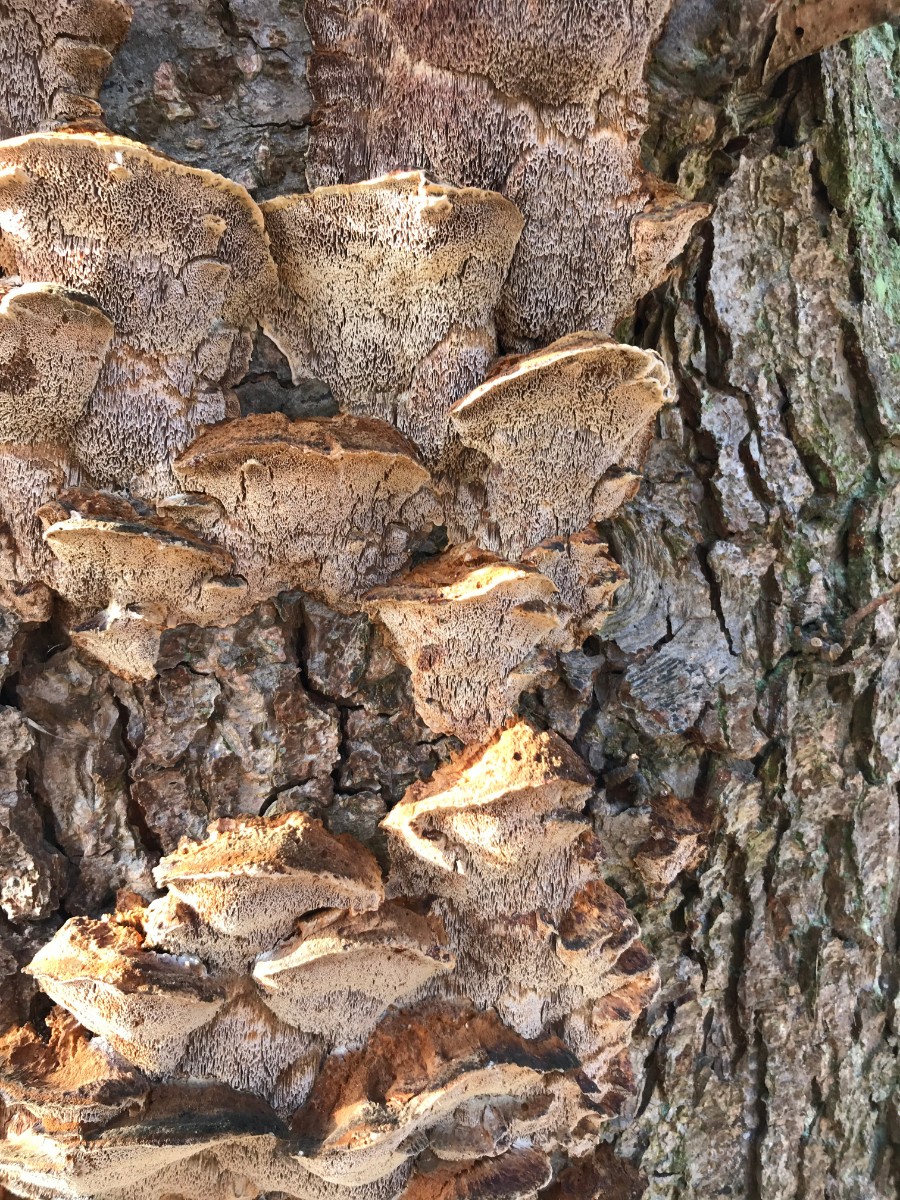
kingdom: Fungi
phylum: Basidiomycota
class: Agaricomycetes
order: Hymenochaetales
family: Hymenochaetaceae
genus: Xanthoporia
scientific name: Xanthoporia radiata
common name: elle-spejlporesvamp
